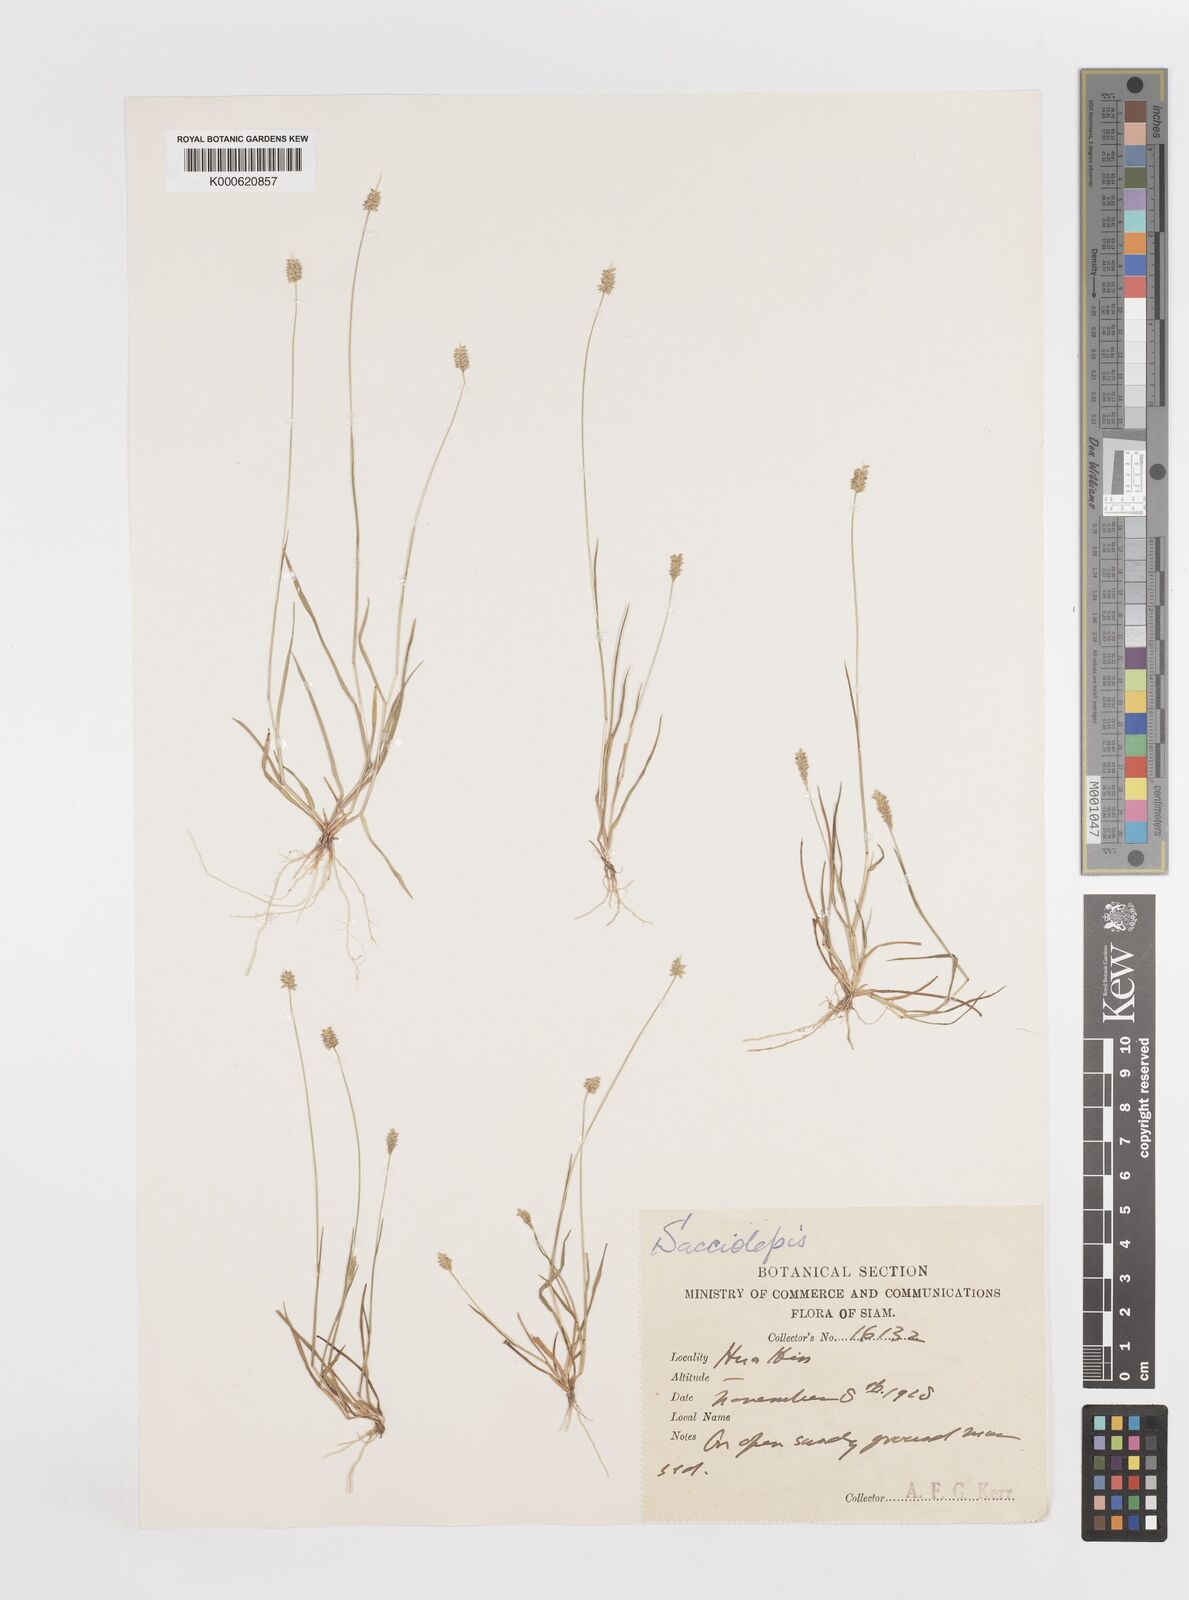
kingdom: Plantae
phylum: Tracheophyta
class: Liliopsida
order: Poales
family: Poaceae
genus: Sacciolepis
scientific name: Sacciolepis indica
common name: Glenwoodgrass
